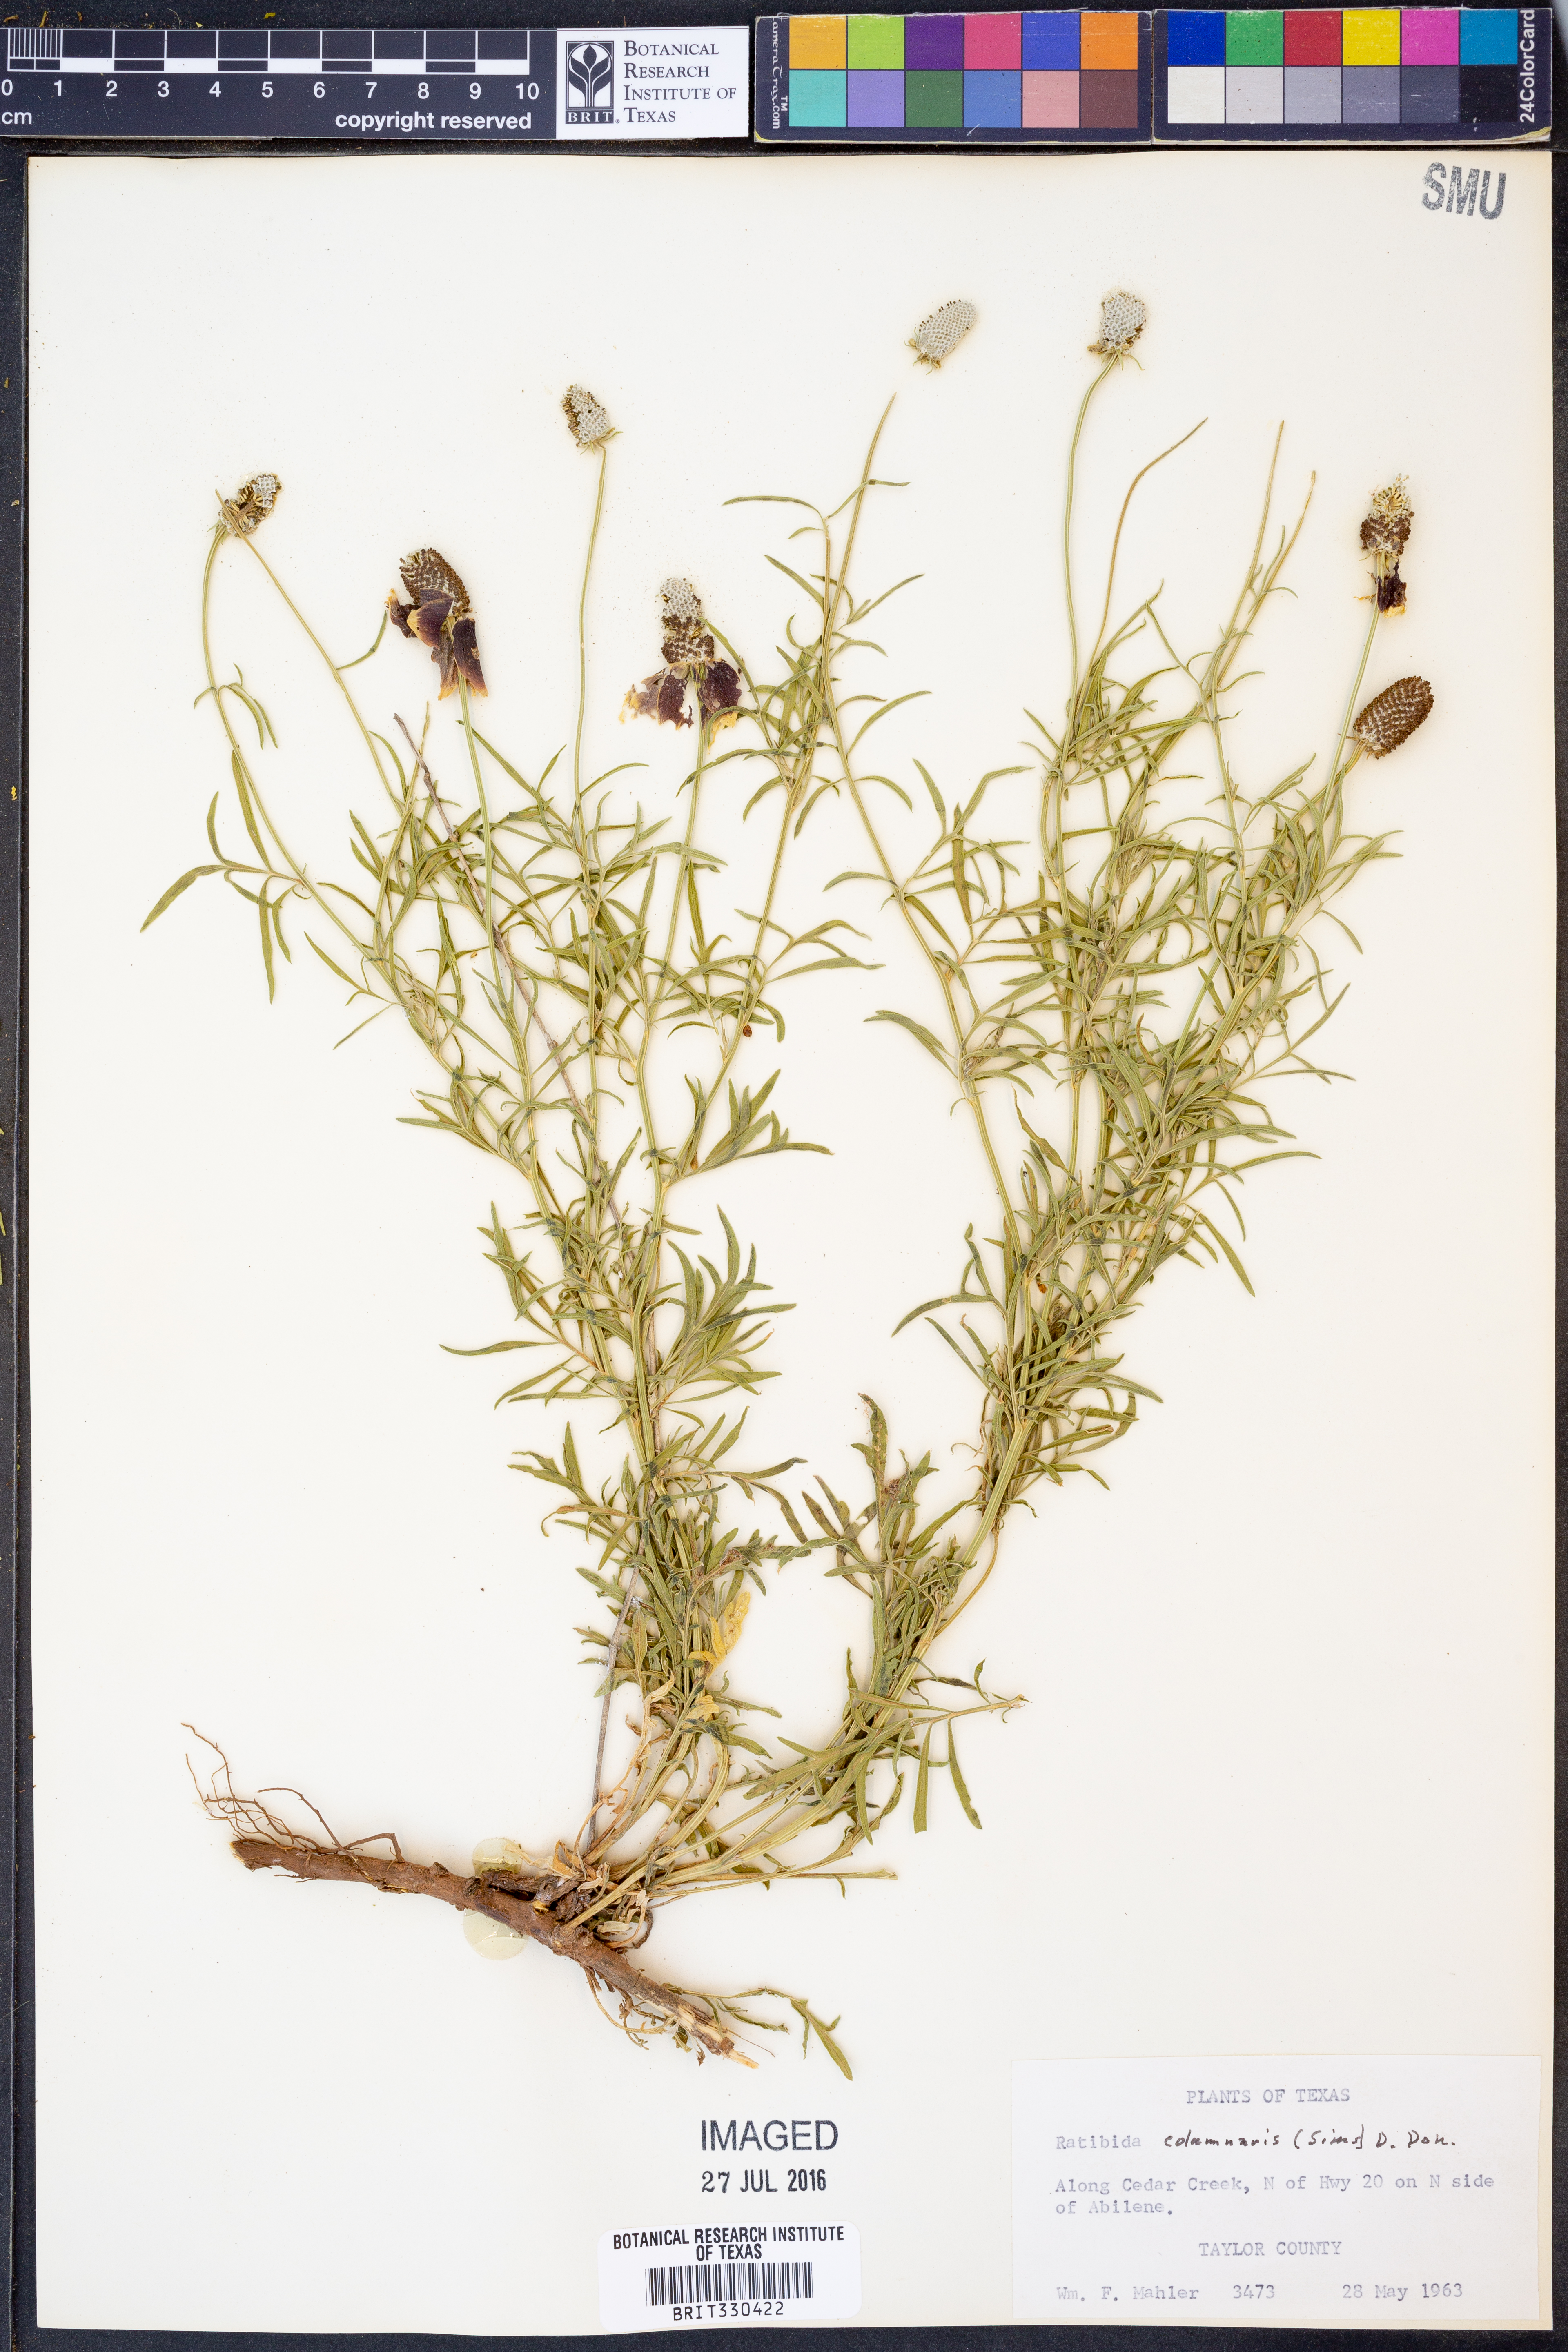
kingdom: Plantae
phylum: Tracheophyta
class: Magnoliopsida
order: Asterales
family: Asteraceae
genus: Ratibida
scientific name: Ratibida columnifera
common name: Prairie coneflower
